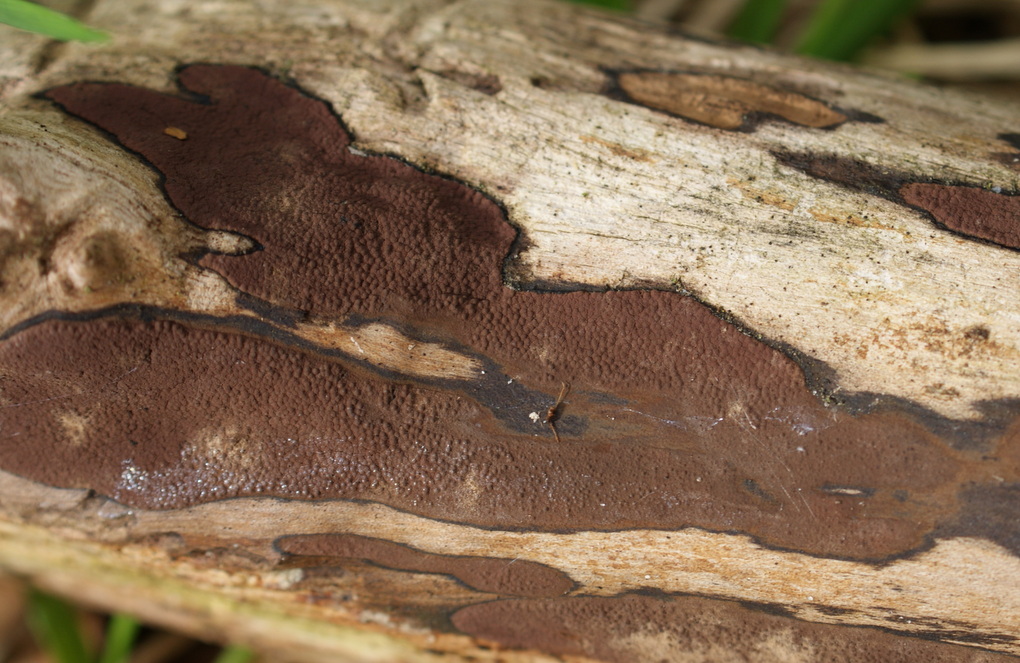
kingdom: Fungi
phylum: Ascomycota
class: Sordariomycetes
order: Xylariales
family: Hypoxylaceae
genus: Hypoxylon
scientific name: Hypoxylon petriniae
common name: nedsænket kulbær
